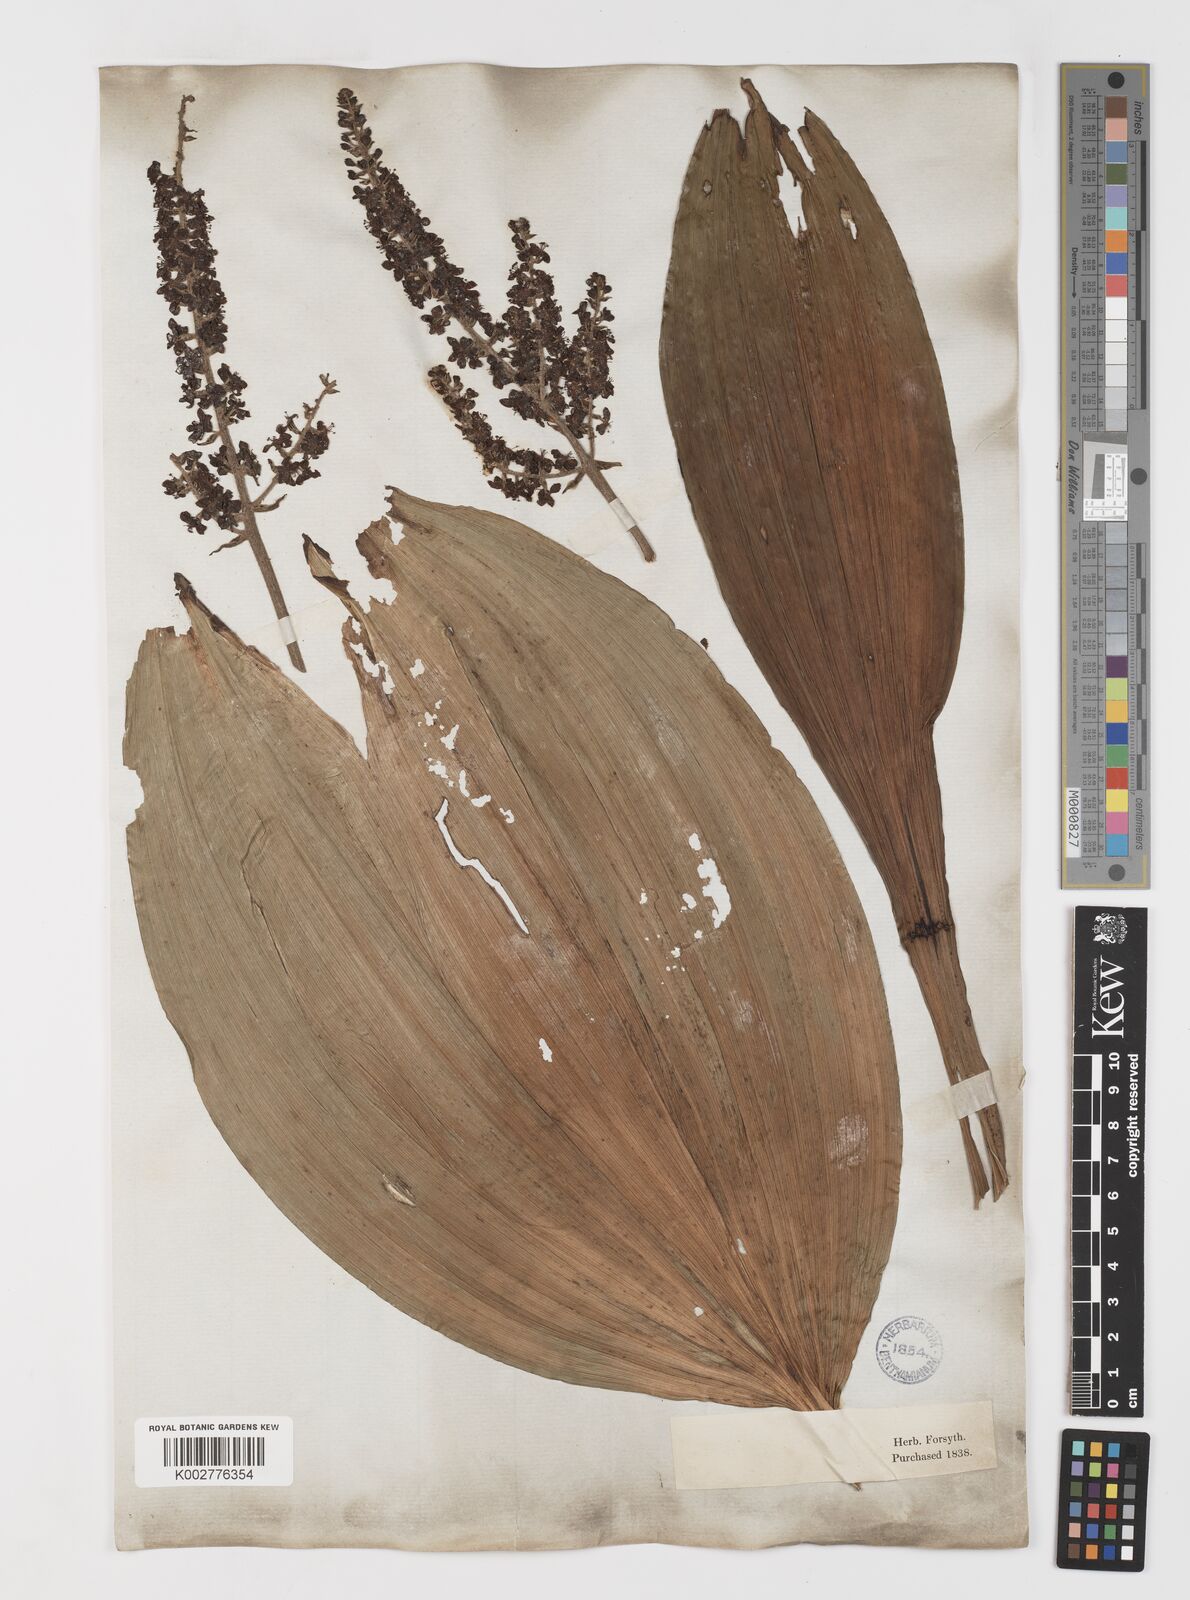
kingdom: Plantae
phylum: Tracheophyta
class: Liliopsida
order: Liliales
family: Melanthiaceae
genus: Veratrum
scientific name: Veratrum nigrum
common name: Black veratrum
